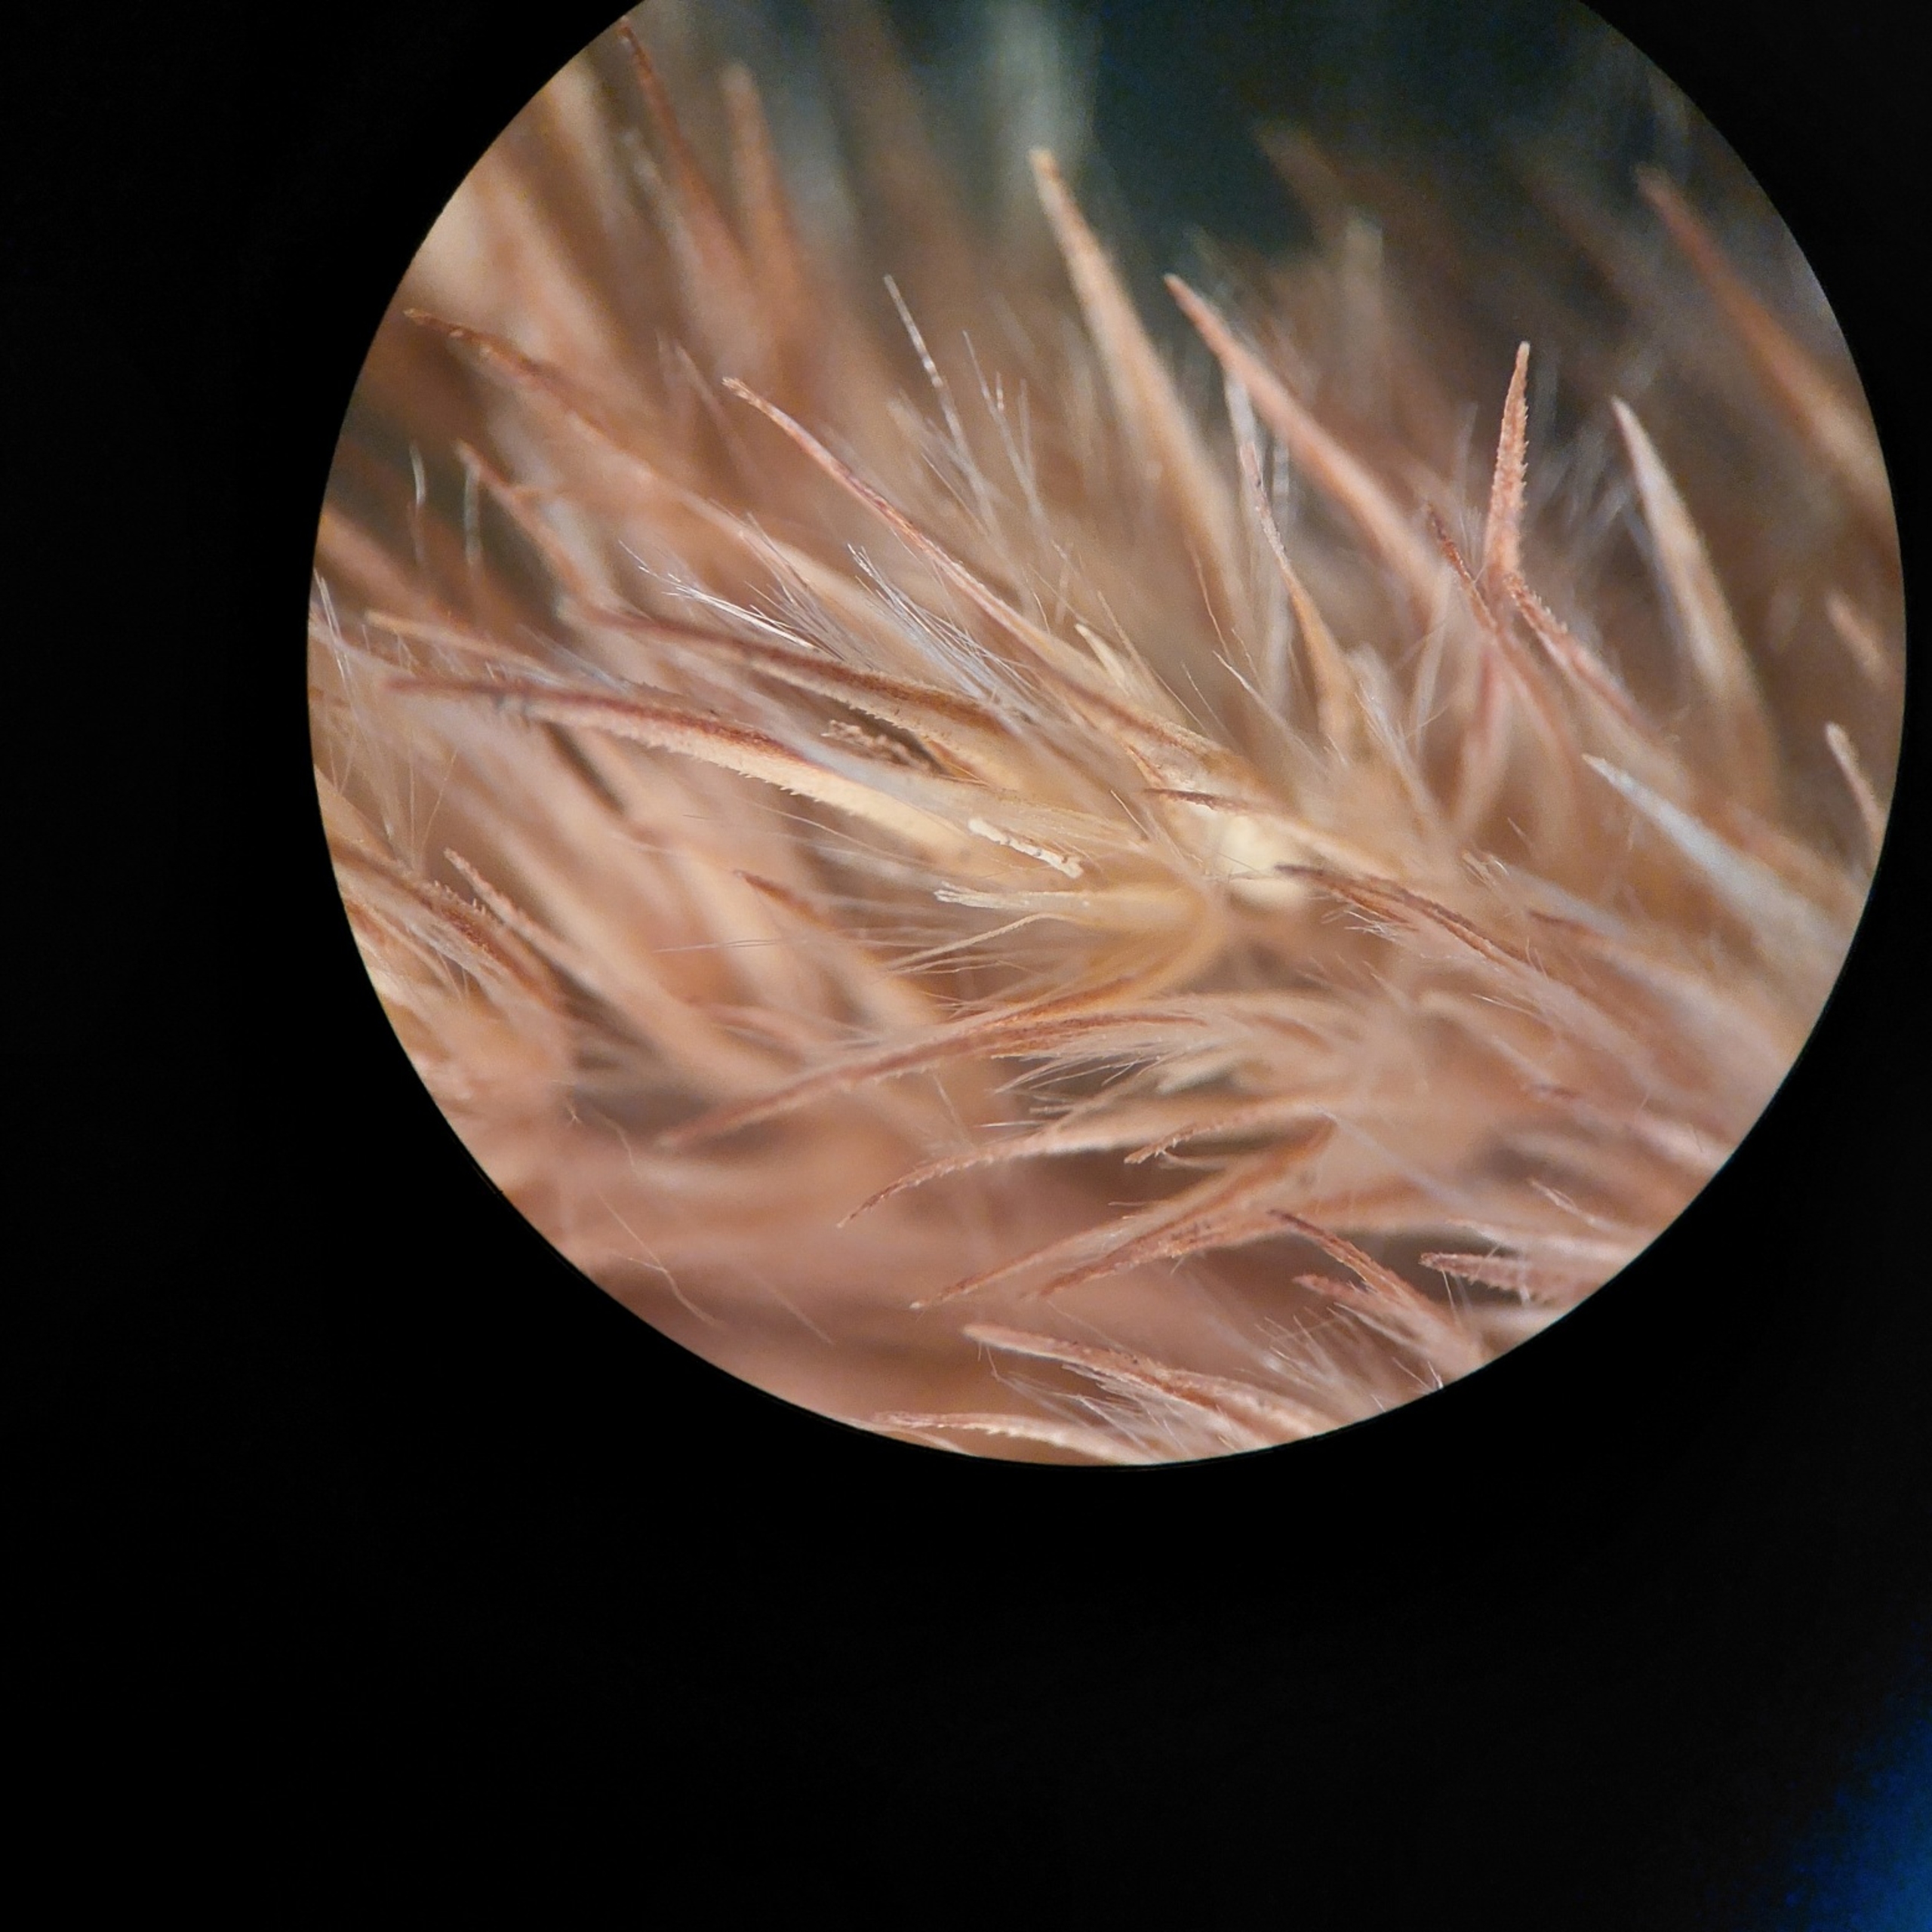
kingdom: Plantae
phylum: Tracheophyta
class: Liliopsida
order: Poales
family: Poaceae
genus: Calamagrostis
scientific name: Calamagrostis epigejos
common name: Bjerg-rørhvene
